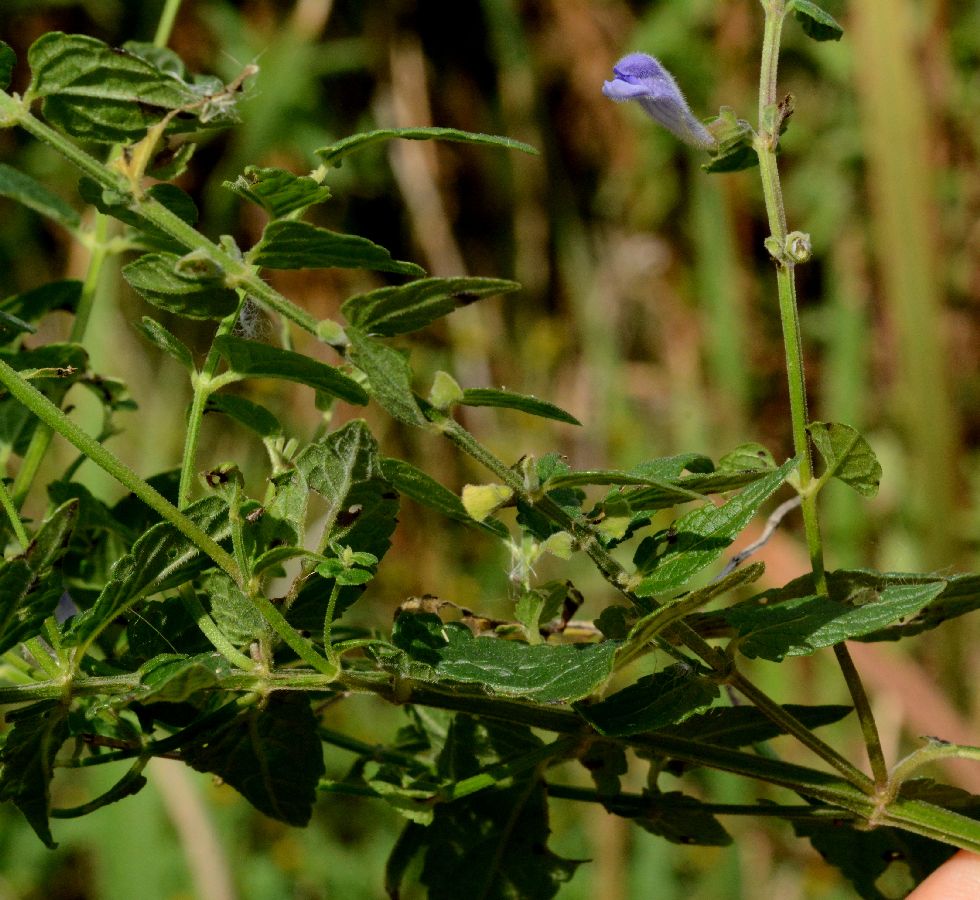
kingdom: Plantae
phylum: Tracheophyta
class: Magnoliopsida
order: Lamiales
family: Lamiaceae
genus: Scutellaria
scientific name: Scutellaria galericulata
